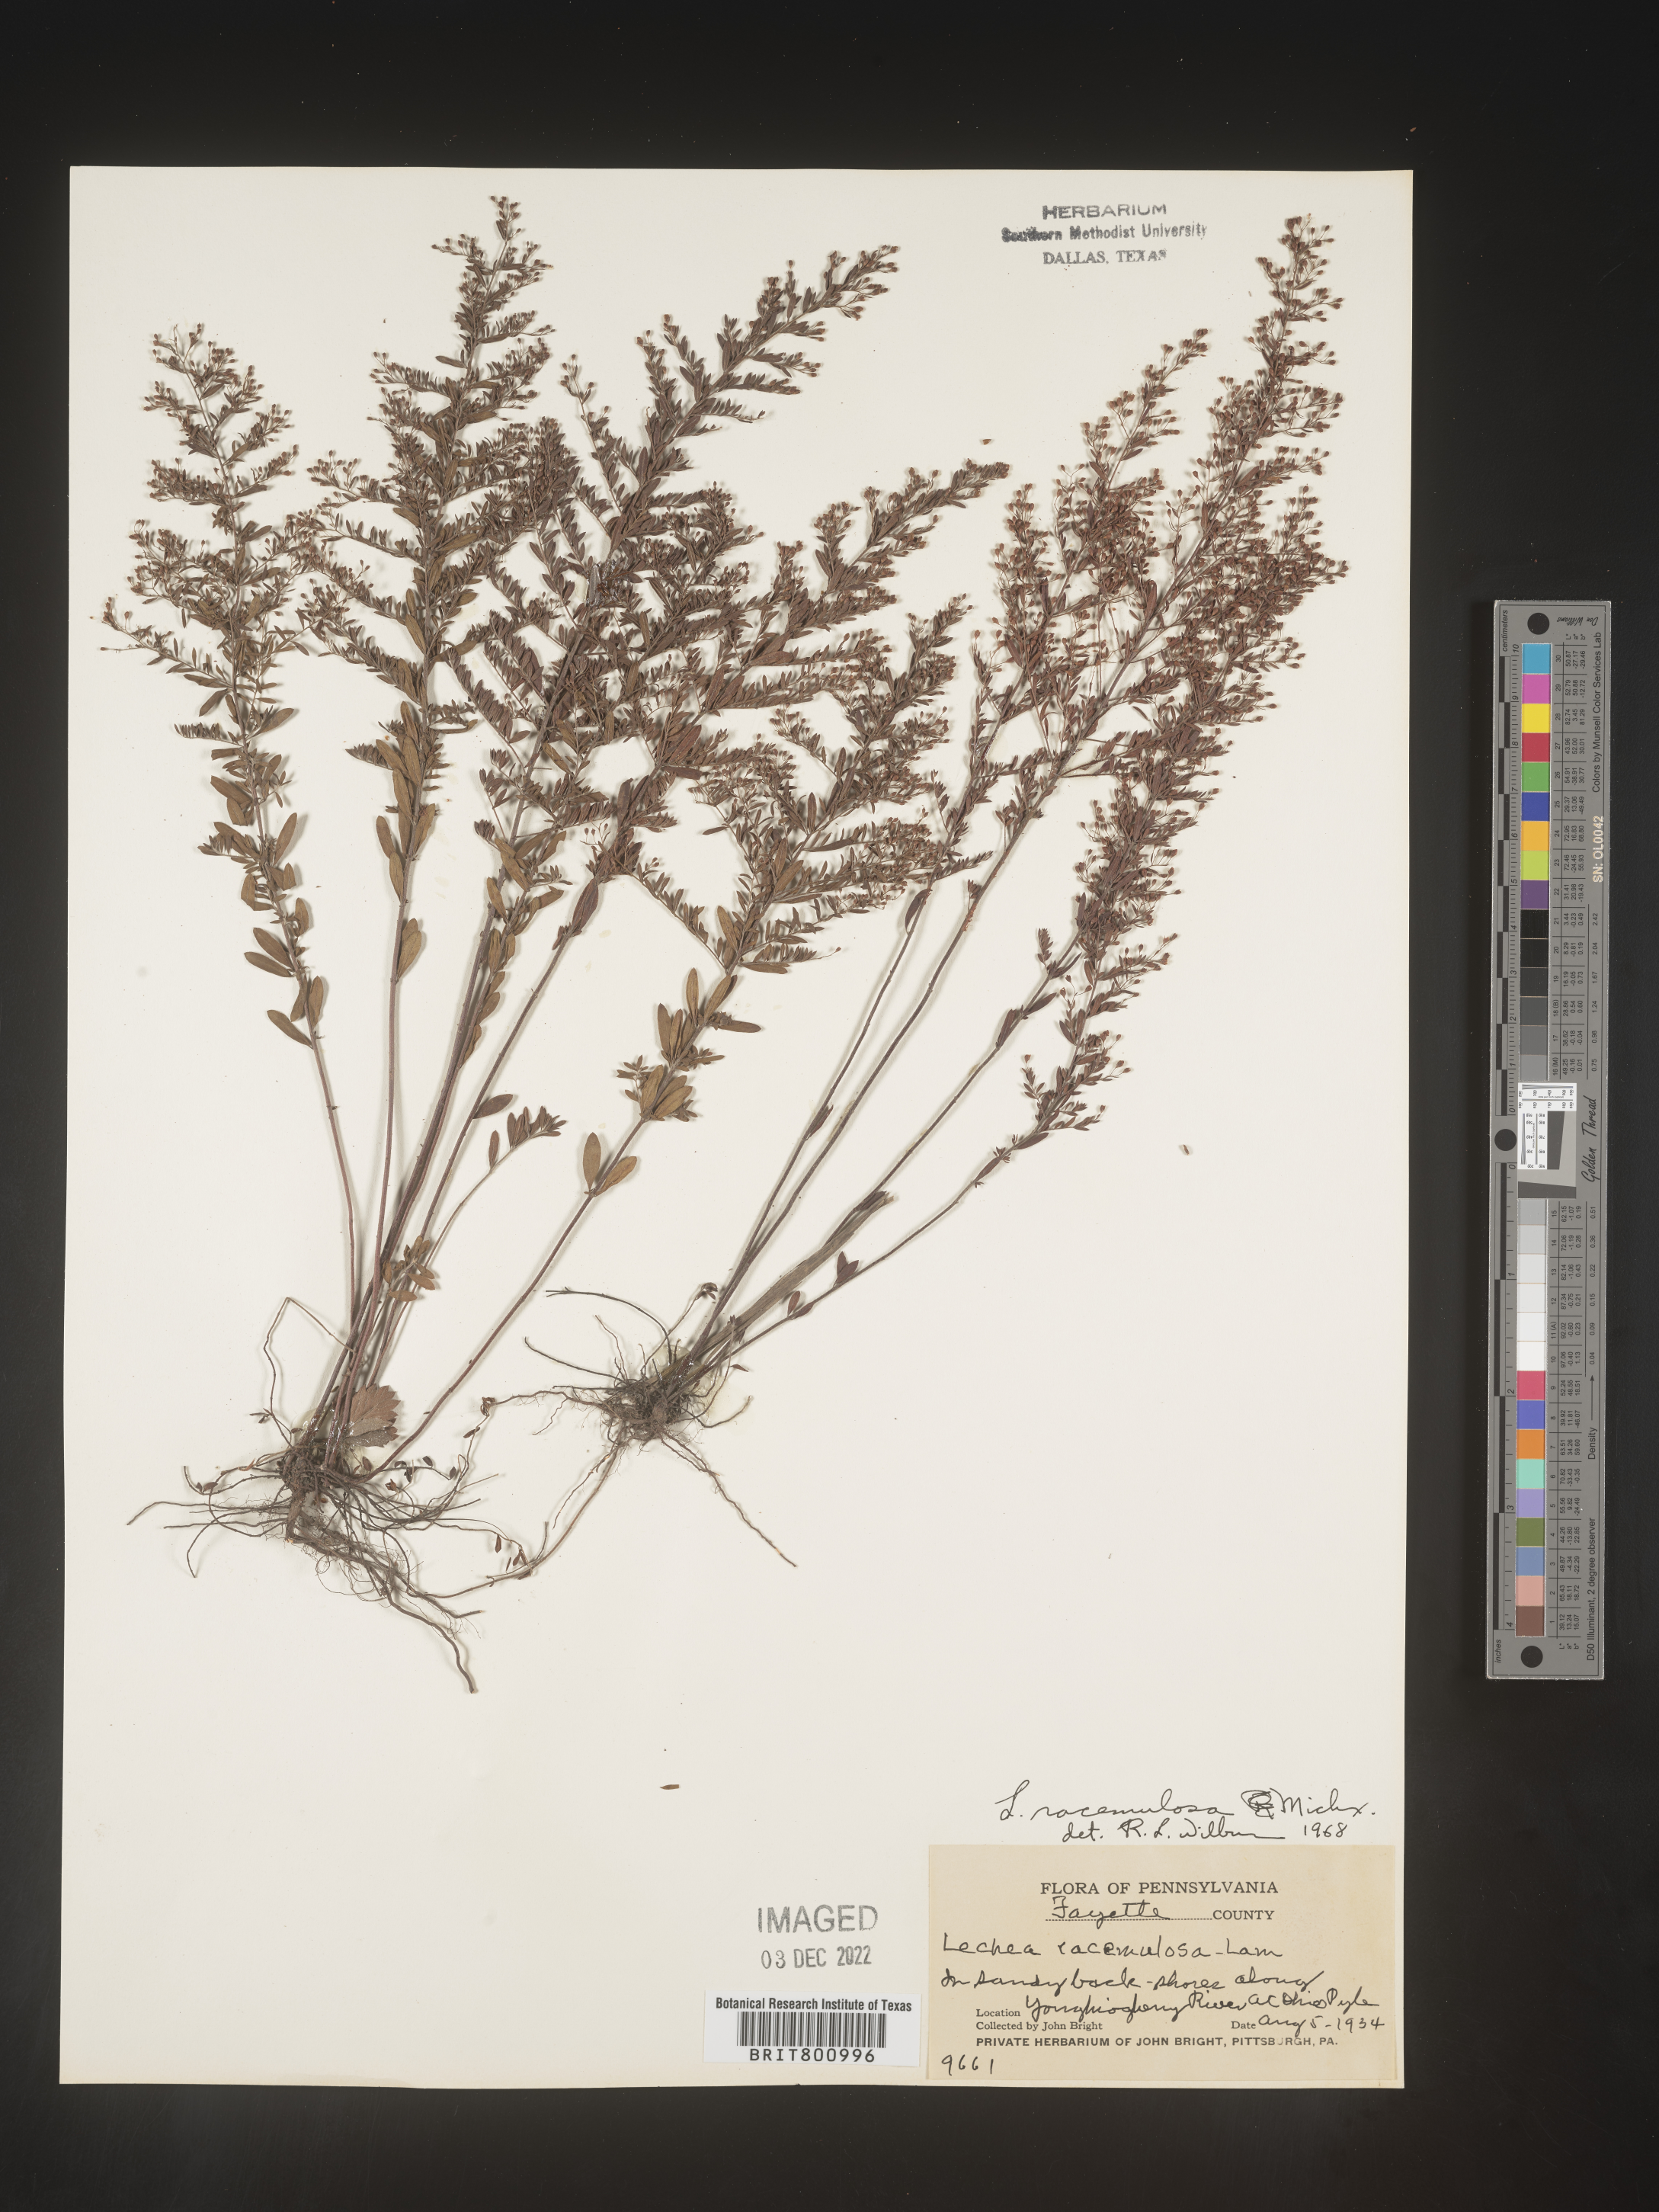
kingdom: Plantae
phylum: Tracheophyta
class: Magnoliopsida
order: Malvales
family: Cistaceae
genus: Lechea
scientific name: Lechea racemulosa
